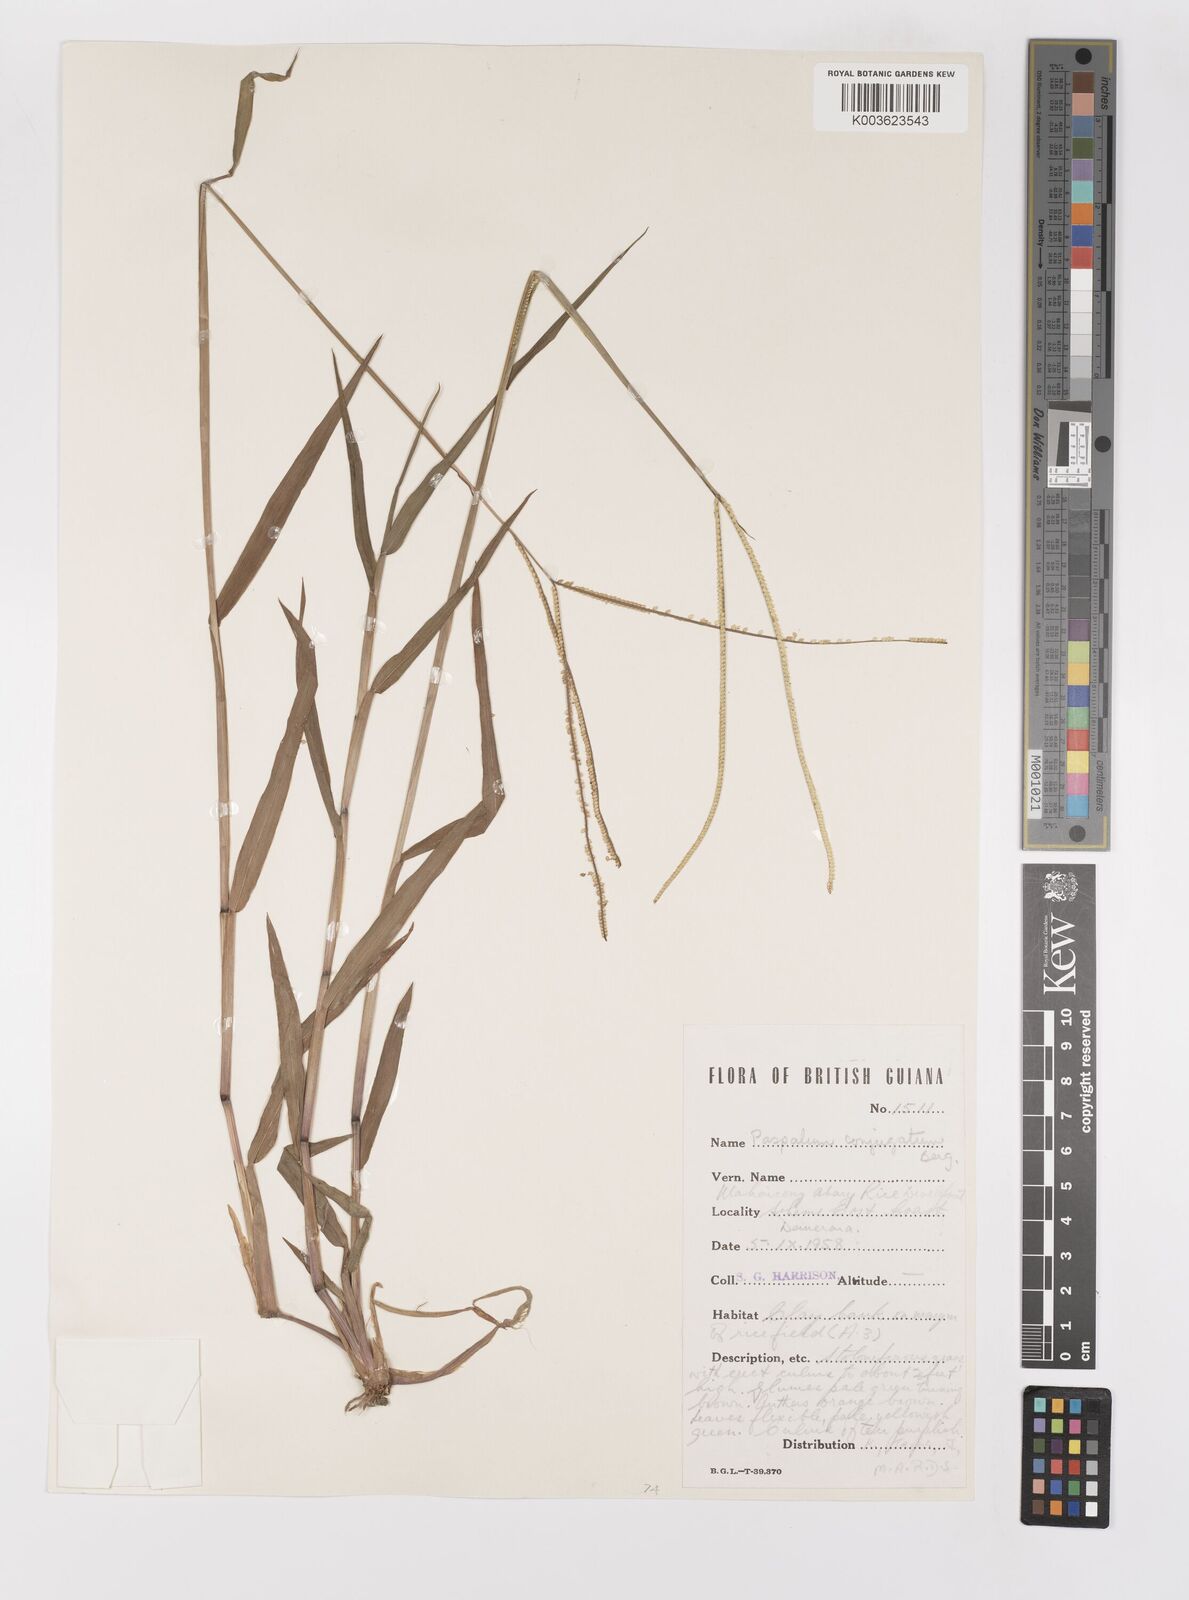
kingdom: Plantae
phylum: Tracheophyta
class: Liliopsida
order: Poales
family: Poaceae
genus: Paspalum
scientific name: Paspalum conjugatum
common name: Hilograss
